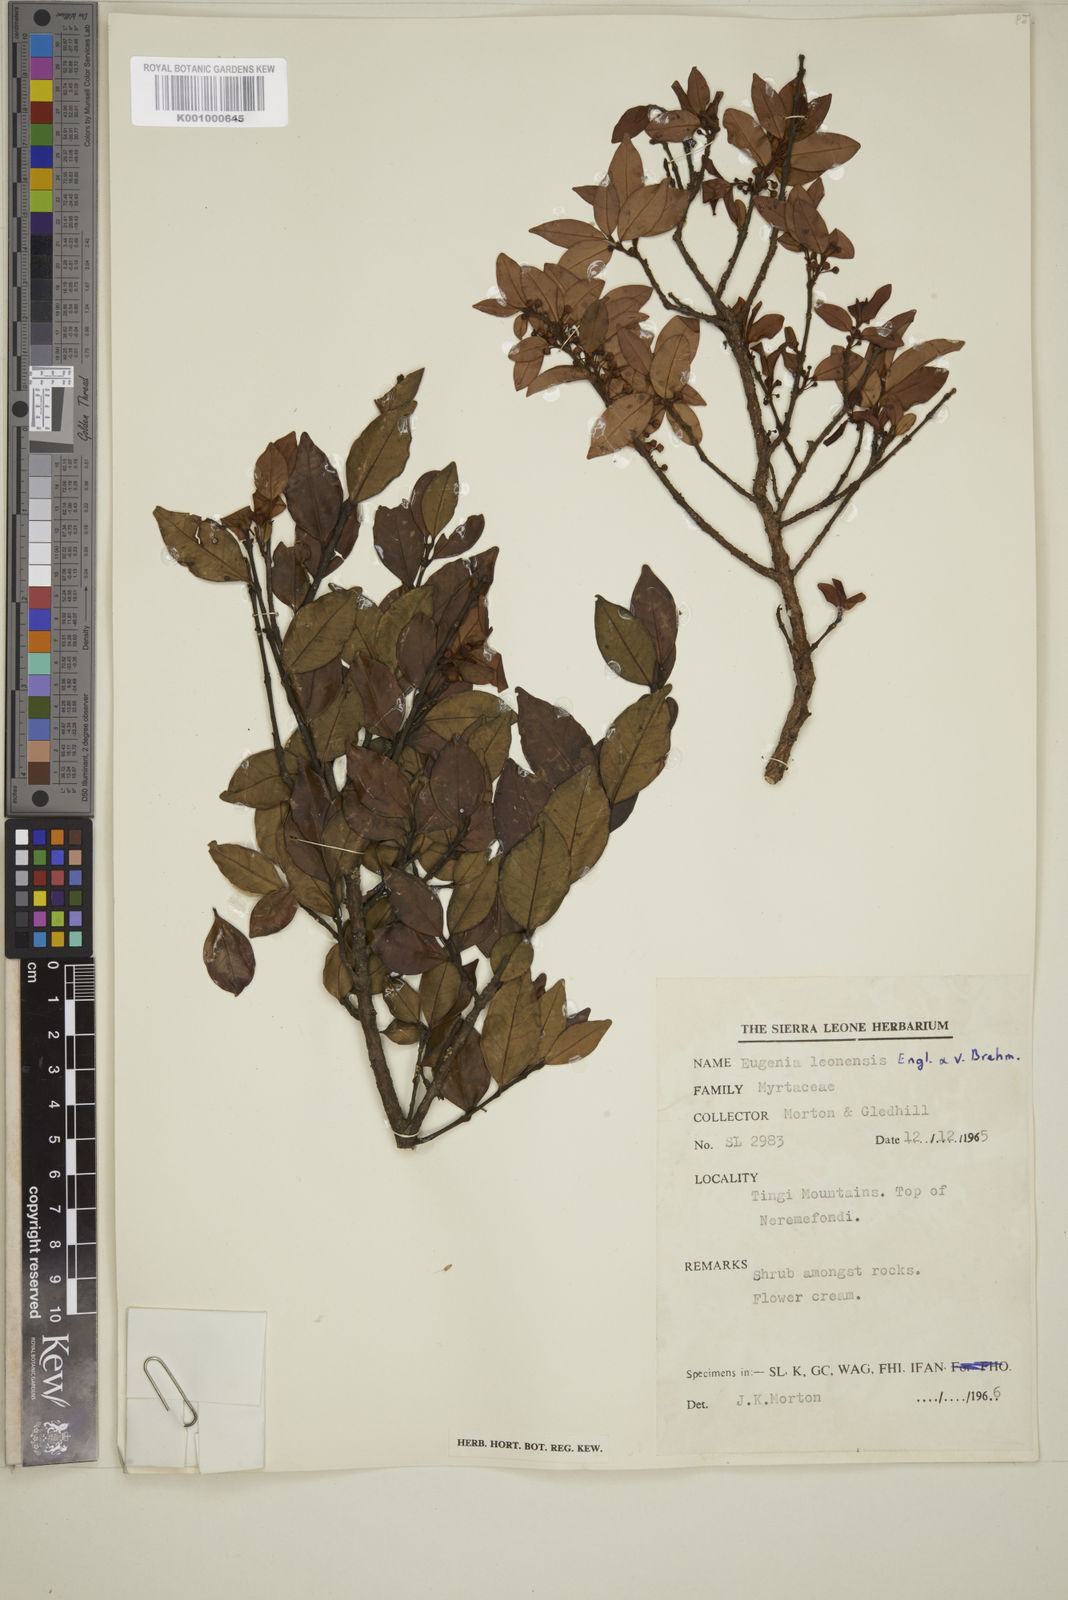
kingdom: Plantae
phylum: Tracheophyta
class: Magnoliopsida
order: Myrtales
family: Myrtaceae
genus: Eugenia
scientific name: Eugenia leonensis
